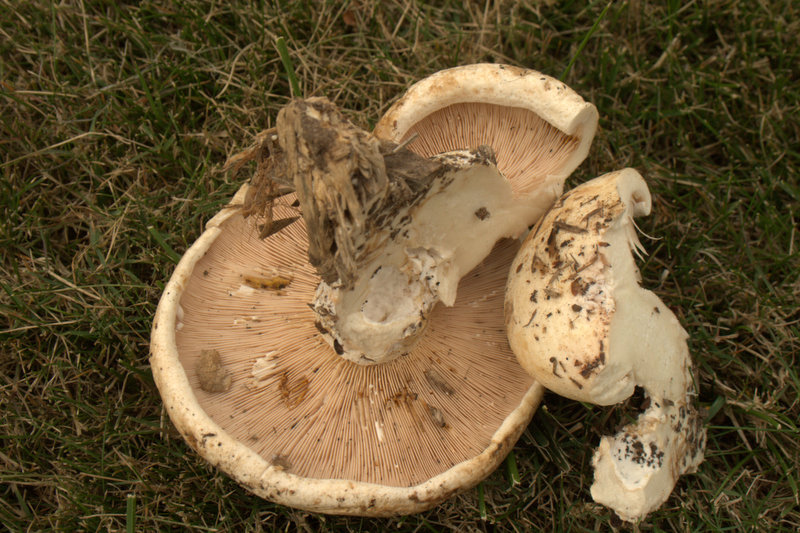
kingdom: Fungi
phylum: Basidiomycota
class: Agaricomycetes
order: Russulales
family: Russulaceae
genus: Lactarius
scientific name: Lactarius controversus
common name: rosabladet mælkehat
